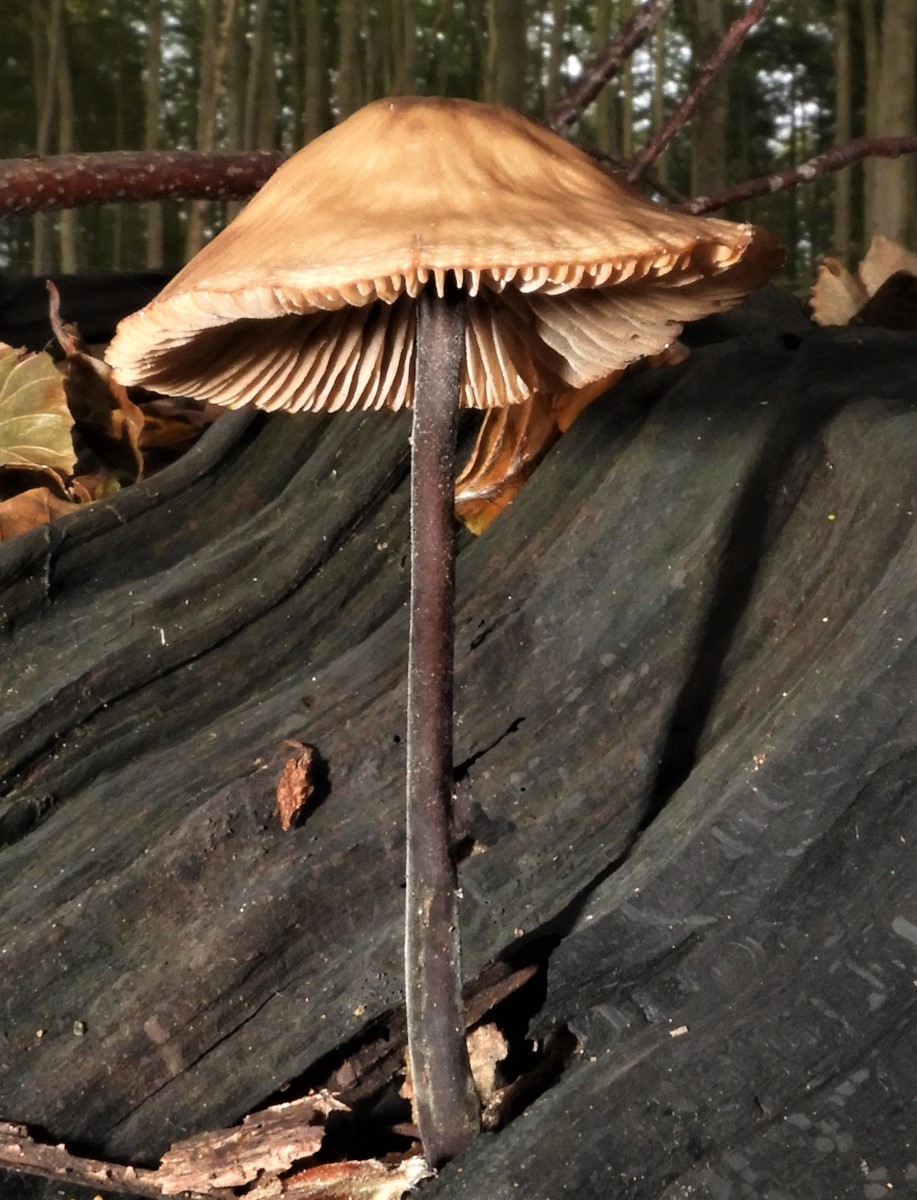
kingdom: Fungi
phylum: Basidiomycota
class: Agaricomycetes
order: Agaricales
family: Omphalotaceae
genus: Mycetinis
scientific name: Mycetinis alliaceus
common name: stor løghat
